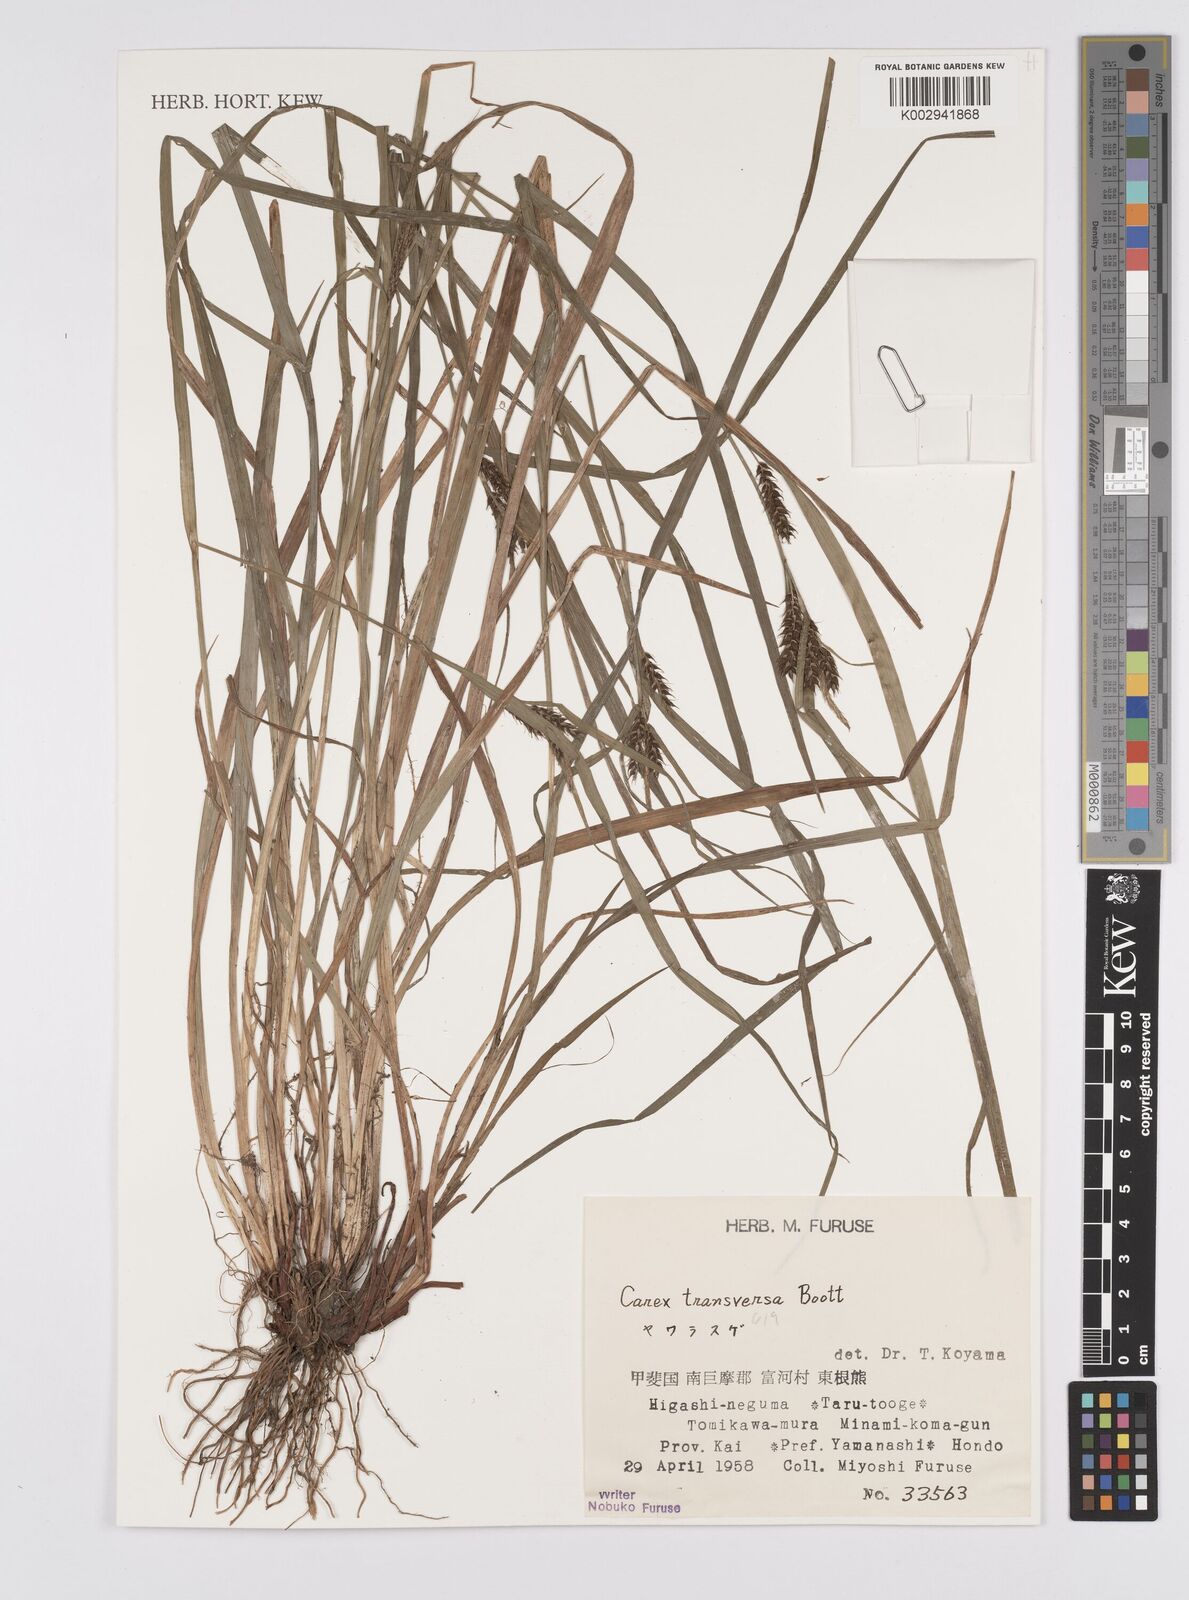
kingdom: Plantae
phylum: Tracheophyta
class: Liliopsida
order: Poales
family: Cyperaceae
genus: Carex
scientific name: Carex brownii
